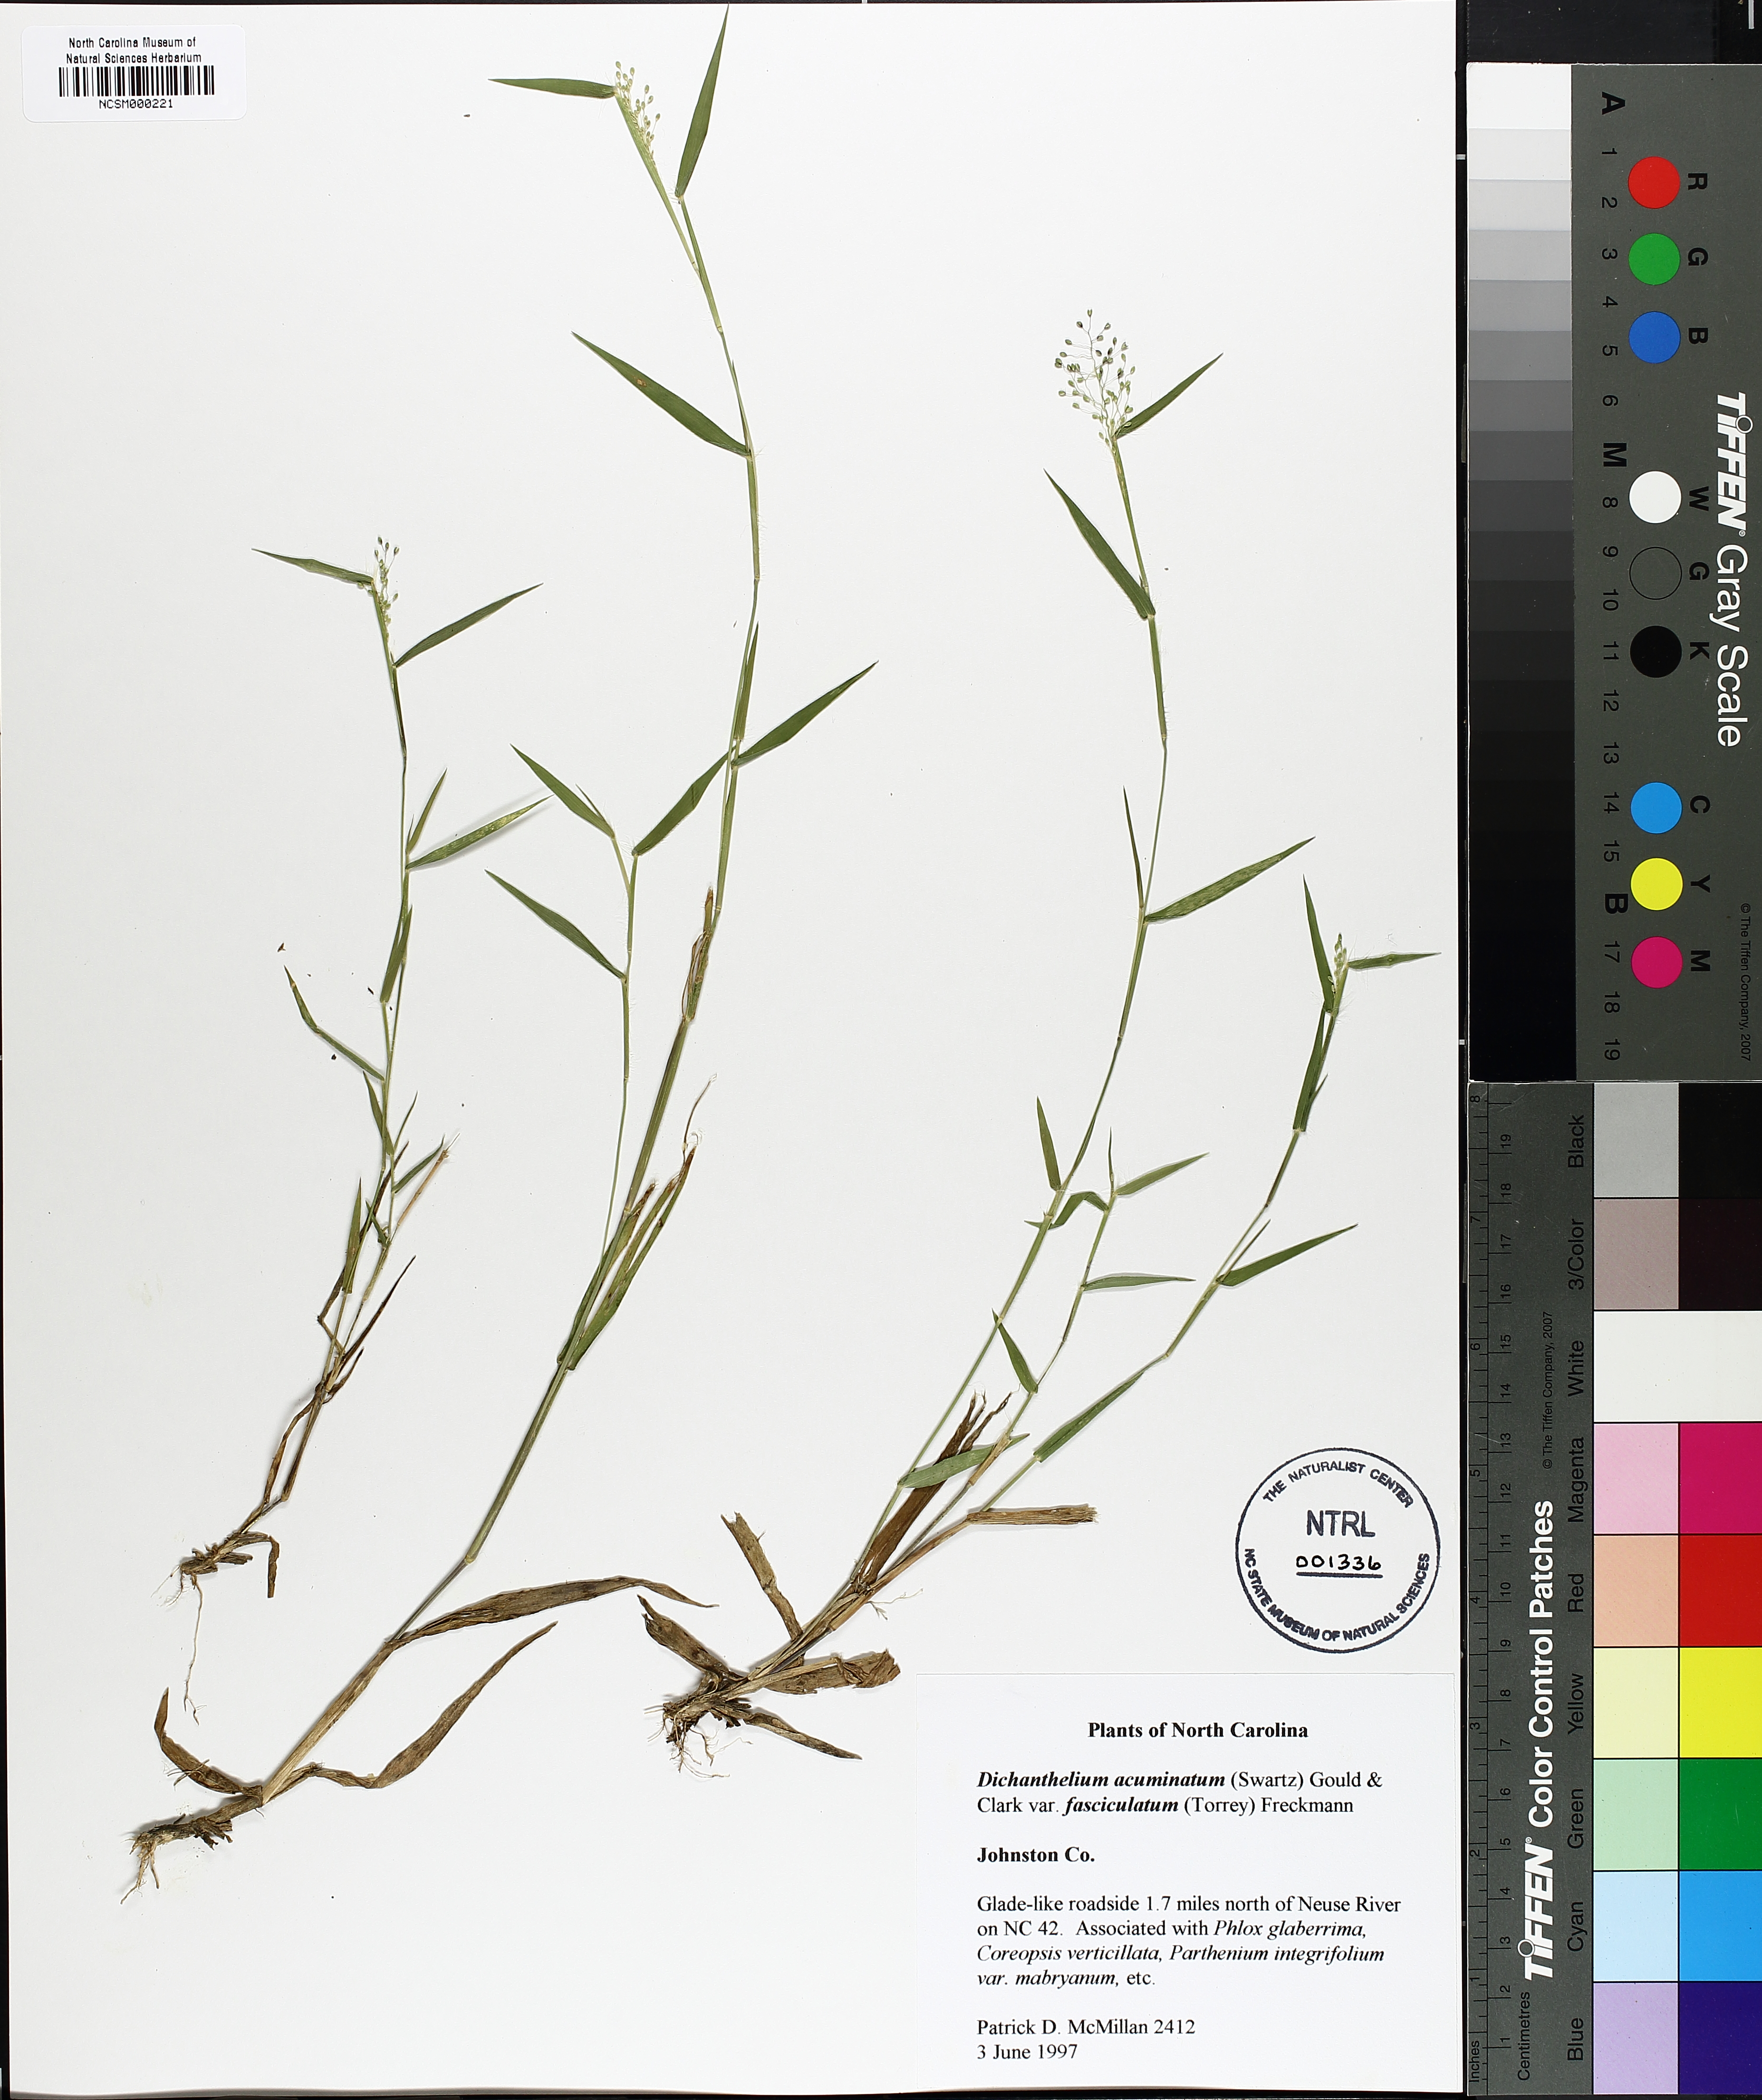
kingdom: Plantae
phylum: Tracheophyta
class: Liliopsida
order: Poales
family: Poaceae
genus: Dichanthelium
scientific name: Dichanthelium lanuginosum
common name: Woolly panicgrass
